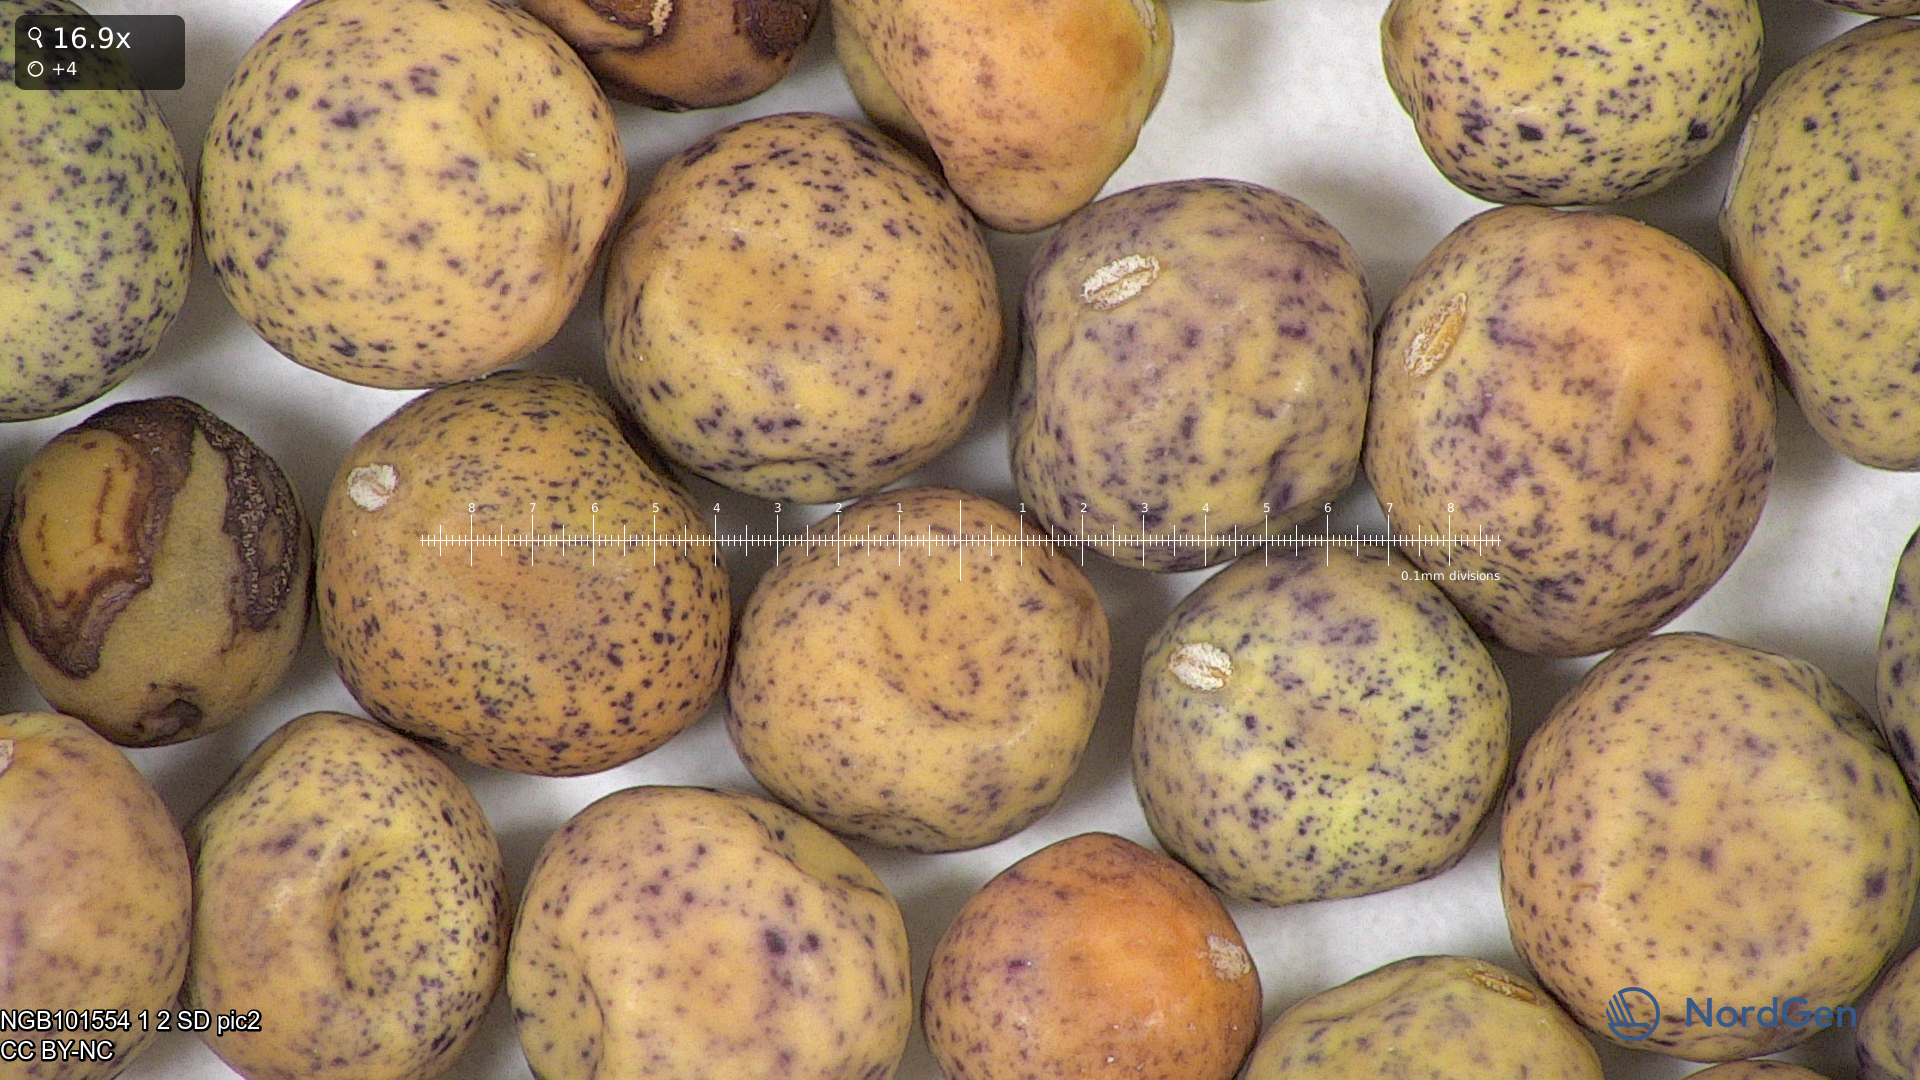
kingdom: Plantae
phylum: Tracheophyta
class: Magnoliopsida
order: Fabales
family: Fabaceae
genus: Lathyrus
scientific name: Lathyrus oleraceus
